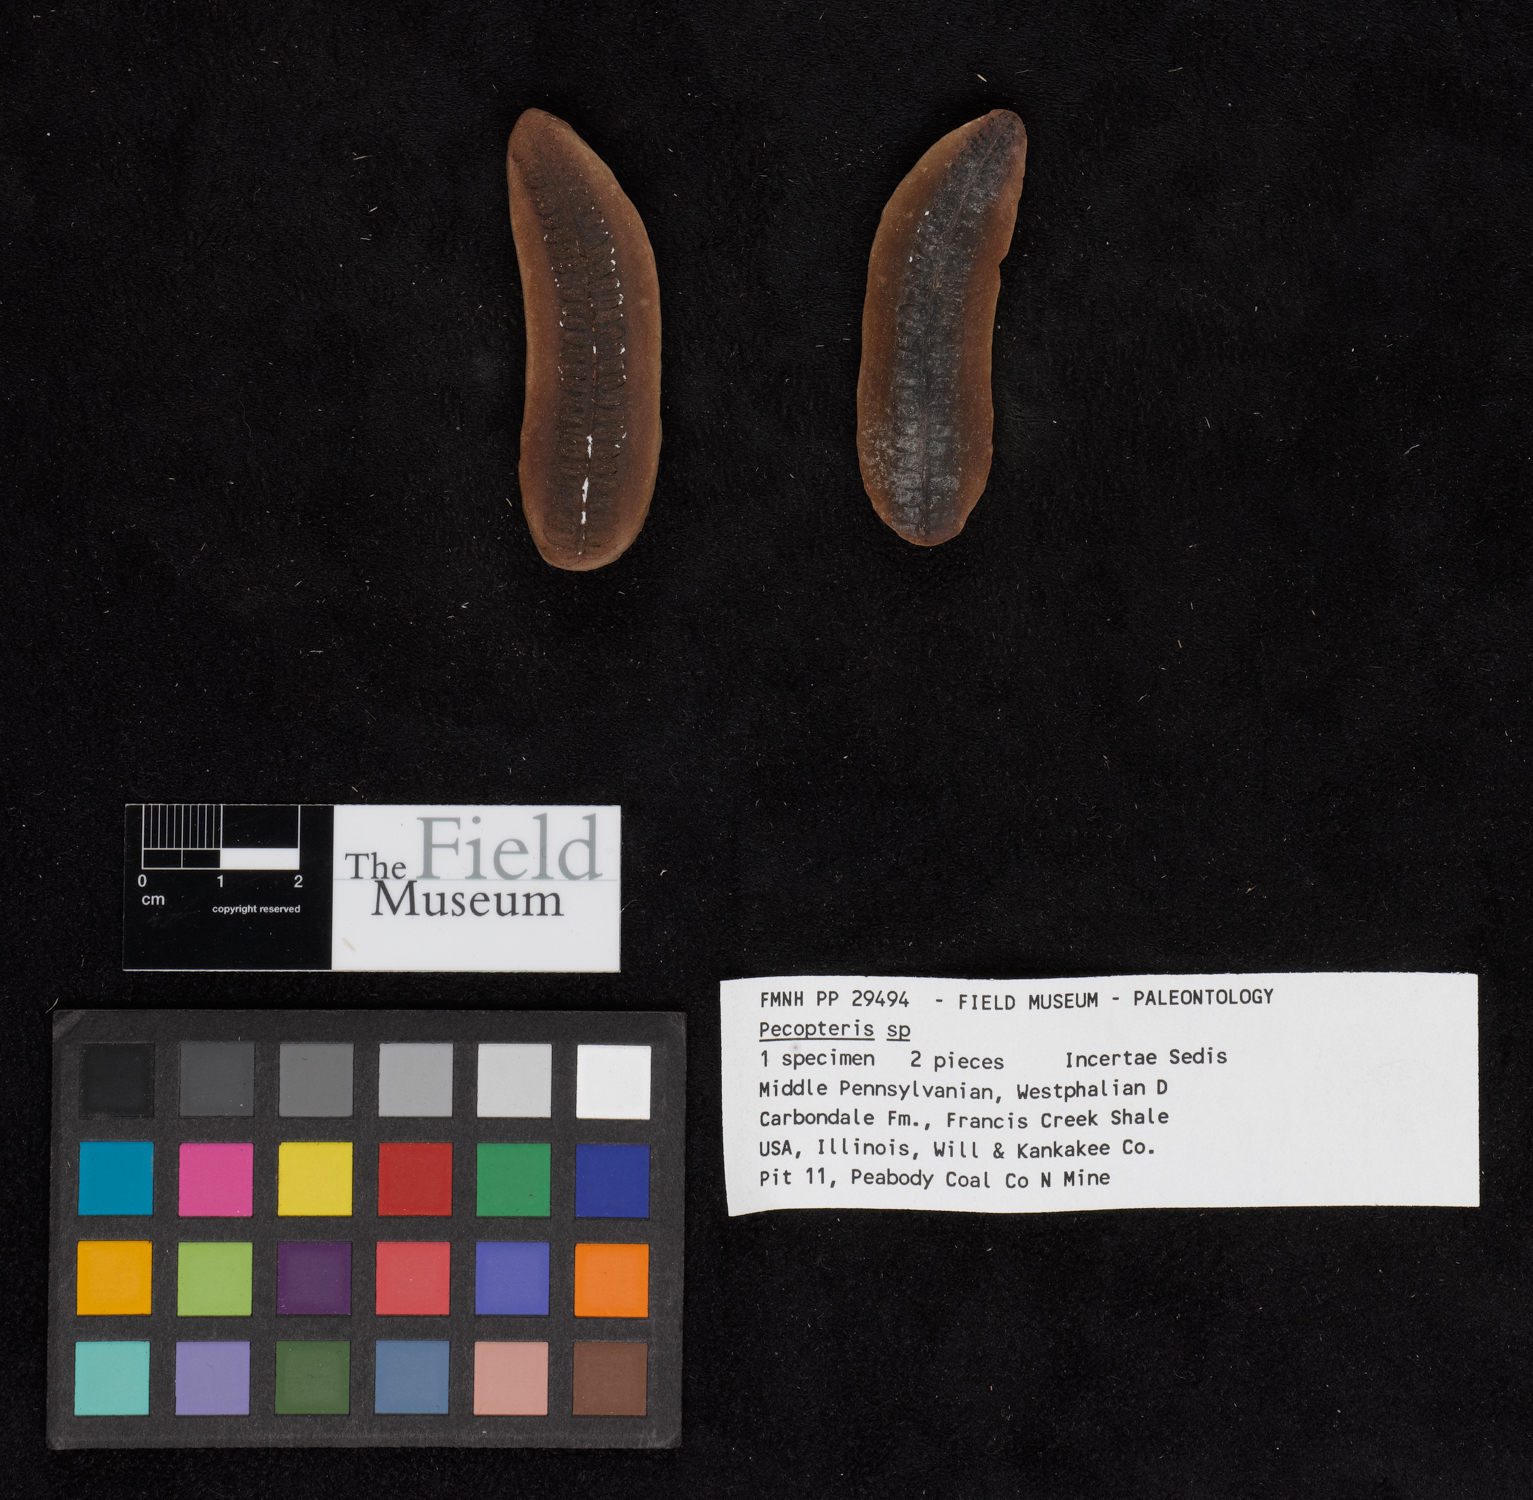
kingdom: Plantae
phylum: Tracheophyta
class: Polypodiopsida
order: Marattiales
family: Asterothecaceae
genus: Pecopteris
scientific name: Pecopteris
